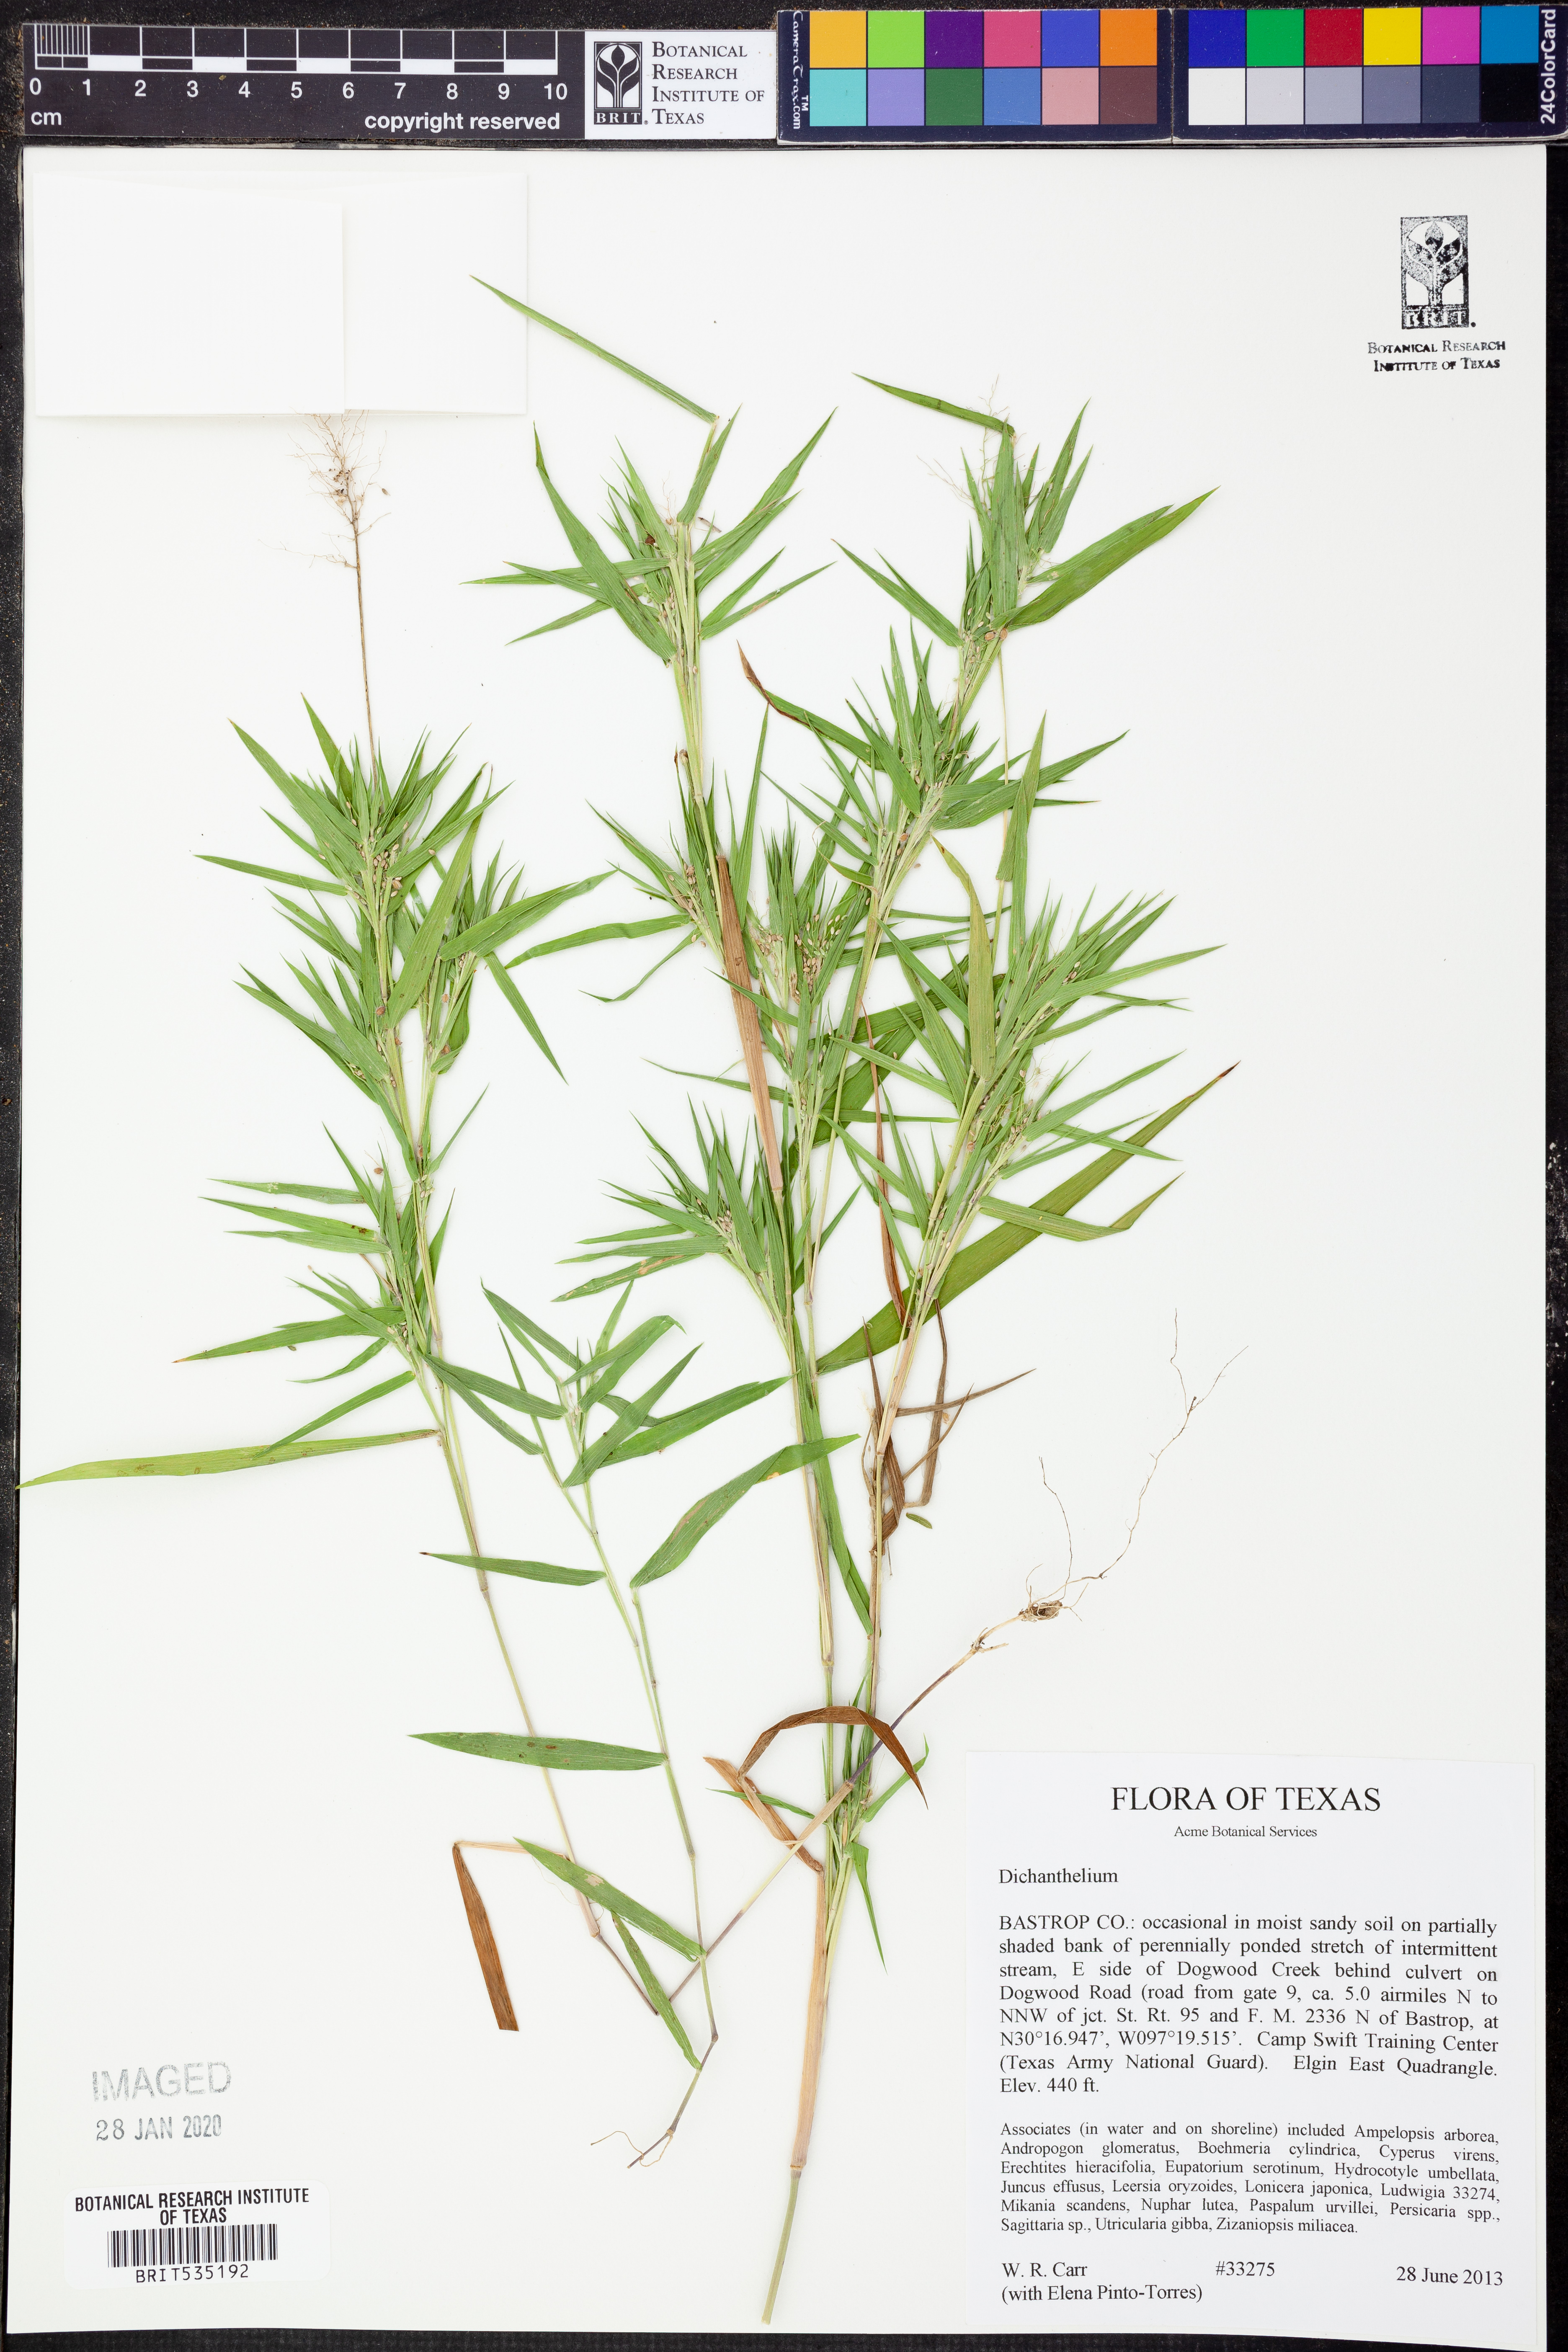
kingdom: Plantae
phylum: Tracheophyta
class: Liliopsida
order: Poales
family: Poaceae
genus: Dichanthelium
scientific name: Dichanthelium
